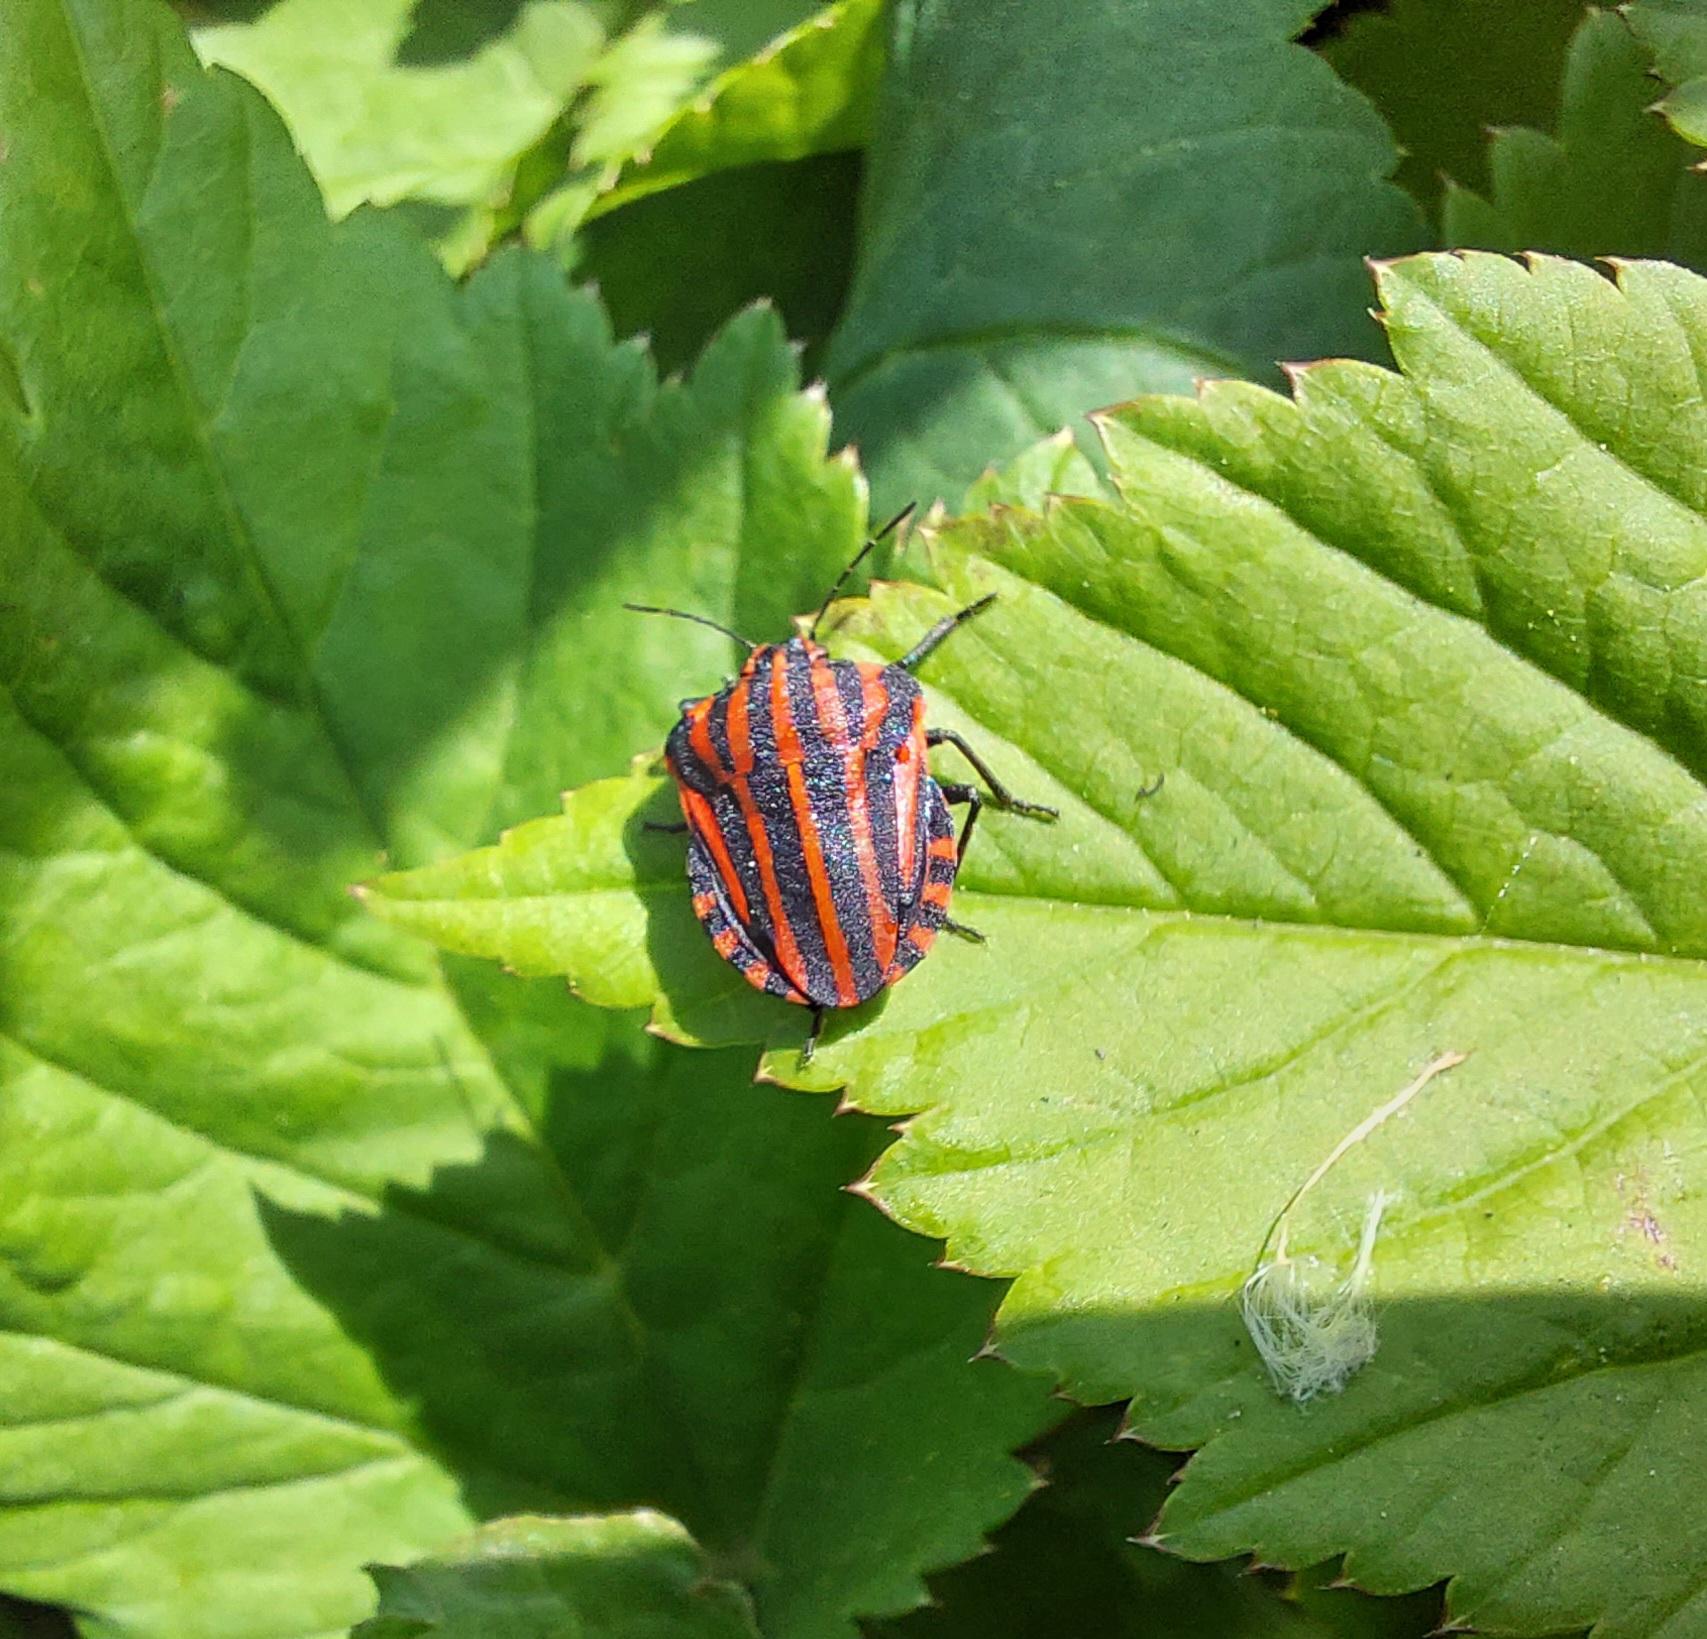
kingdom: Animalia
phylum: Arthropoda
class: Insecta
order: Hemiptera
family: Pentatomidae
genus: Graphosoma
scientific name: Graphosoma italicum
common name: Stribetæge
